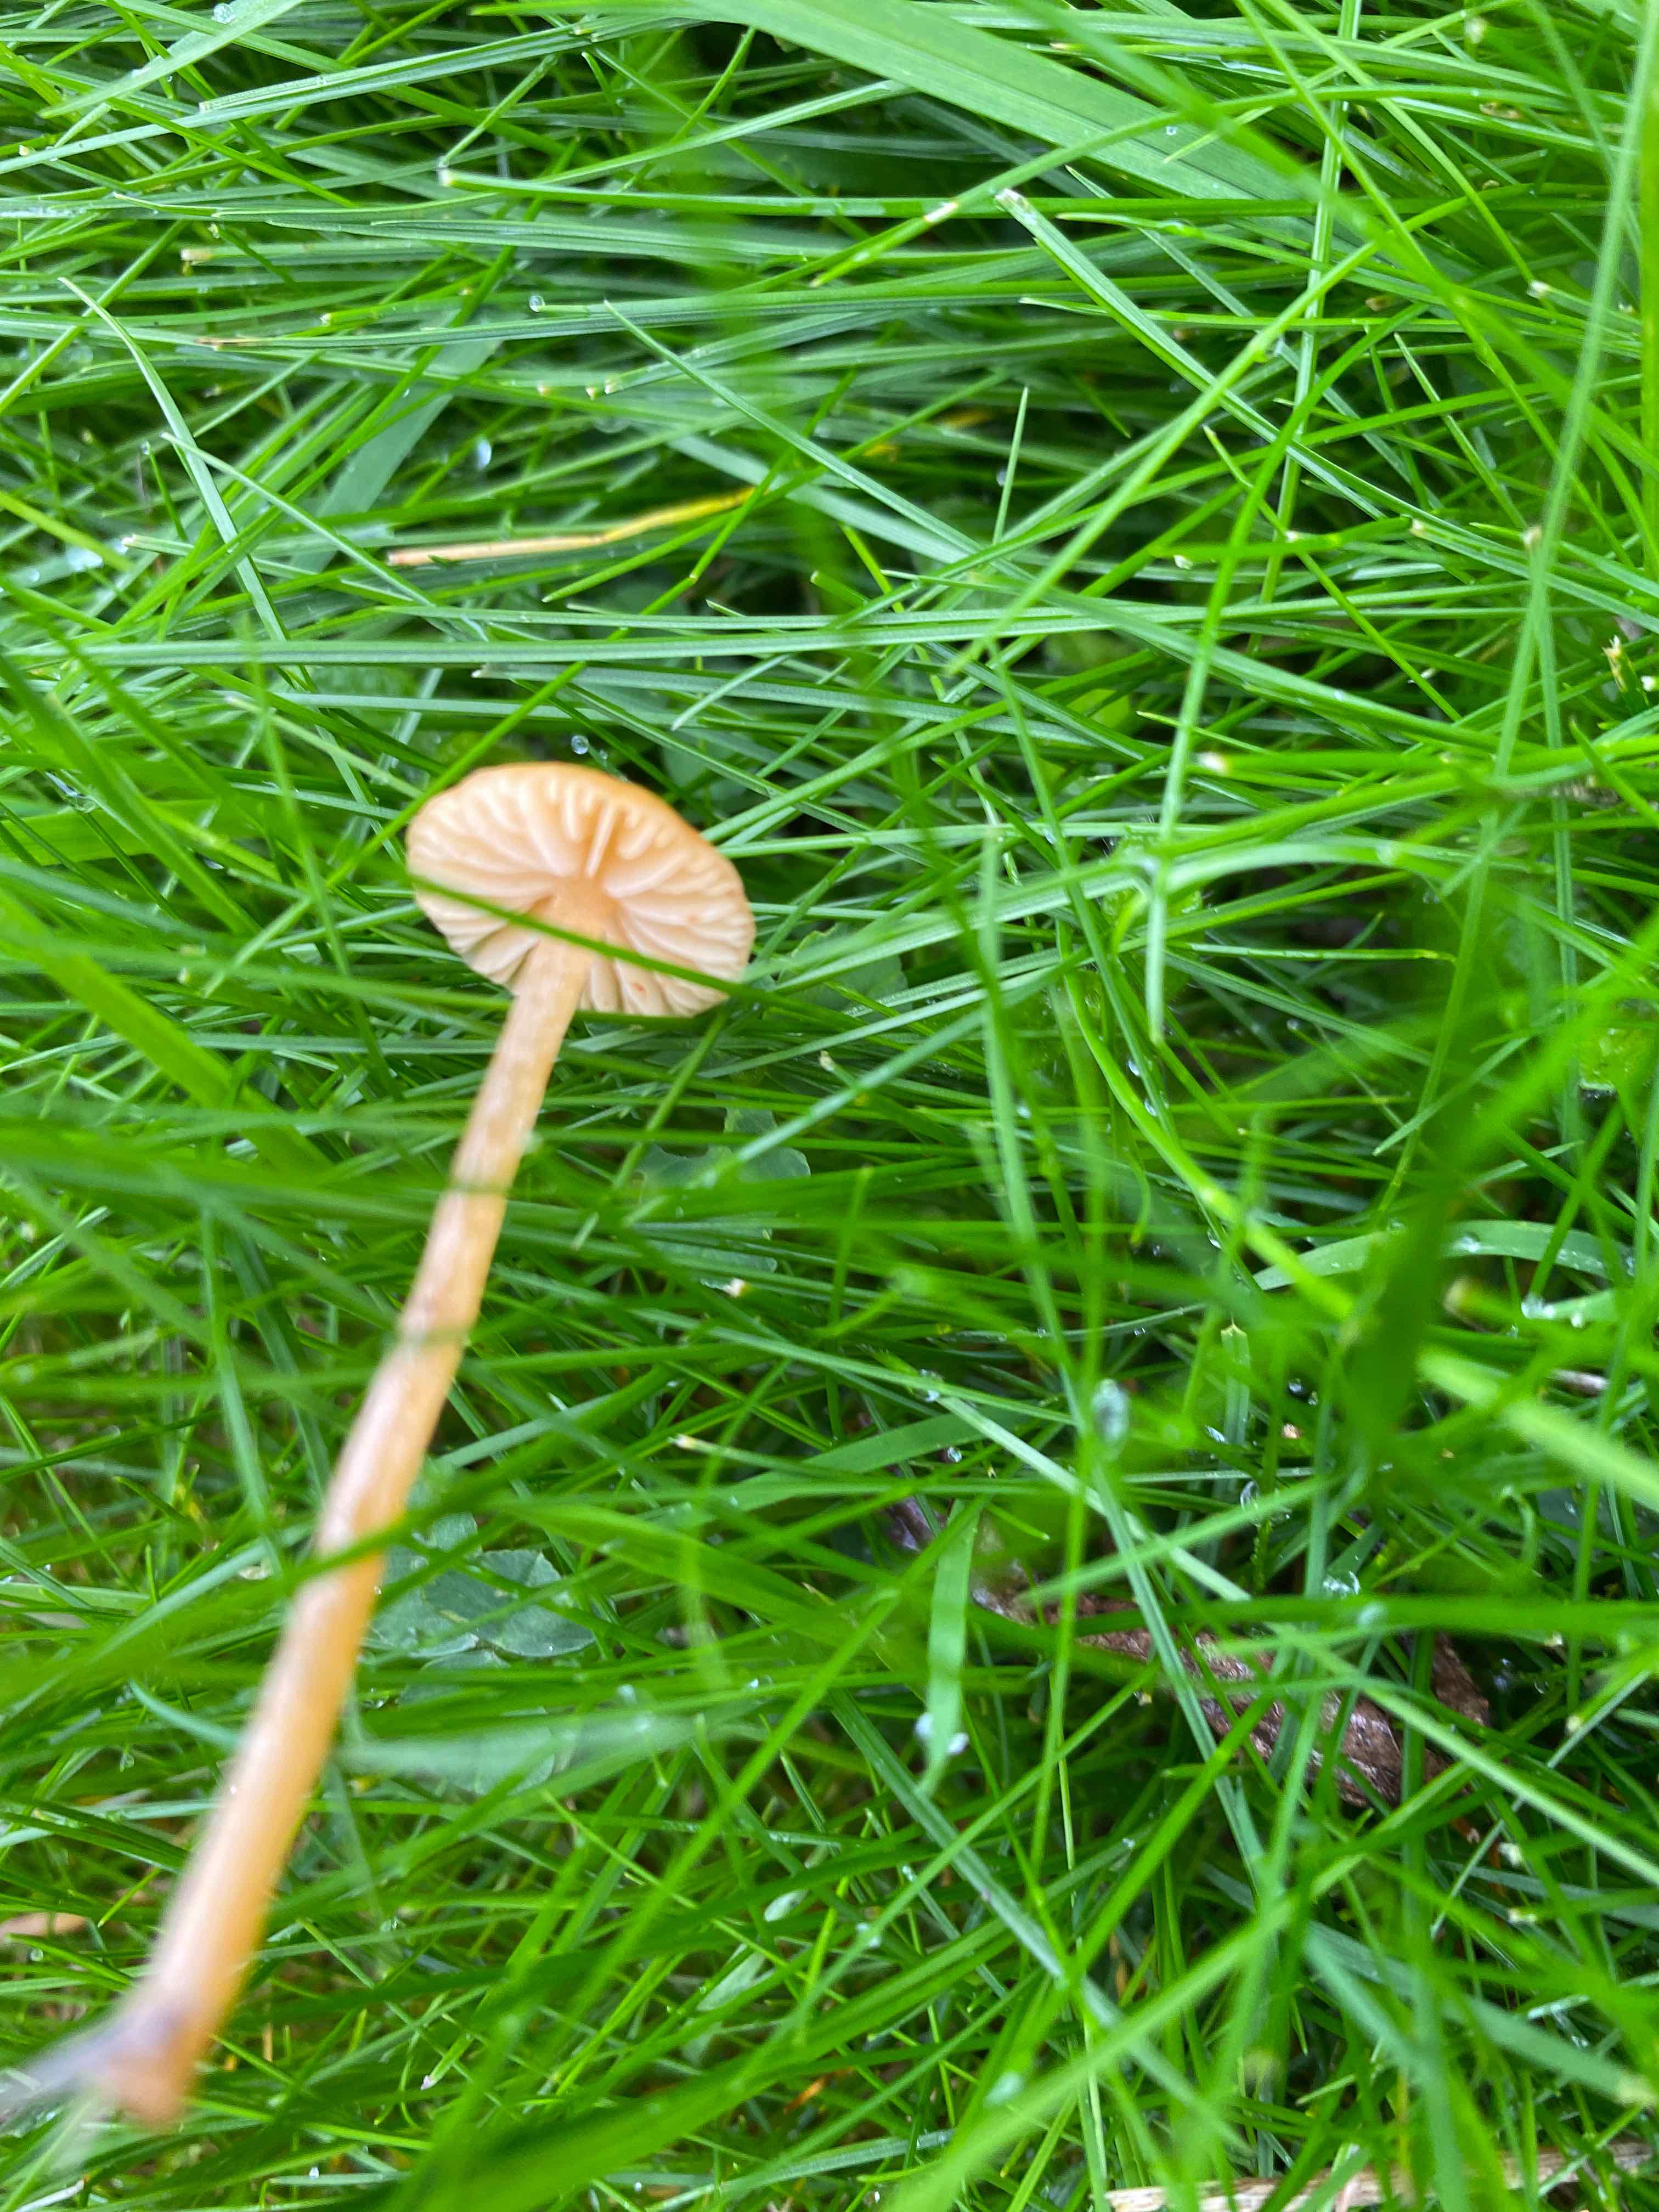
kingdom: Fungi
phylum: Basidiomycota
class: Agaricomycetes
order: Agaricales
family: Hymenogastraceae
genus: Galerina
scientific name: Galerina
